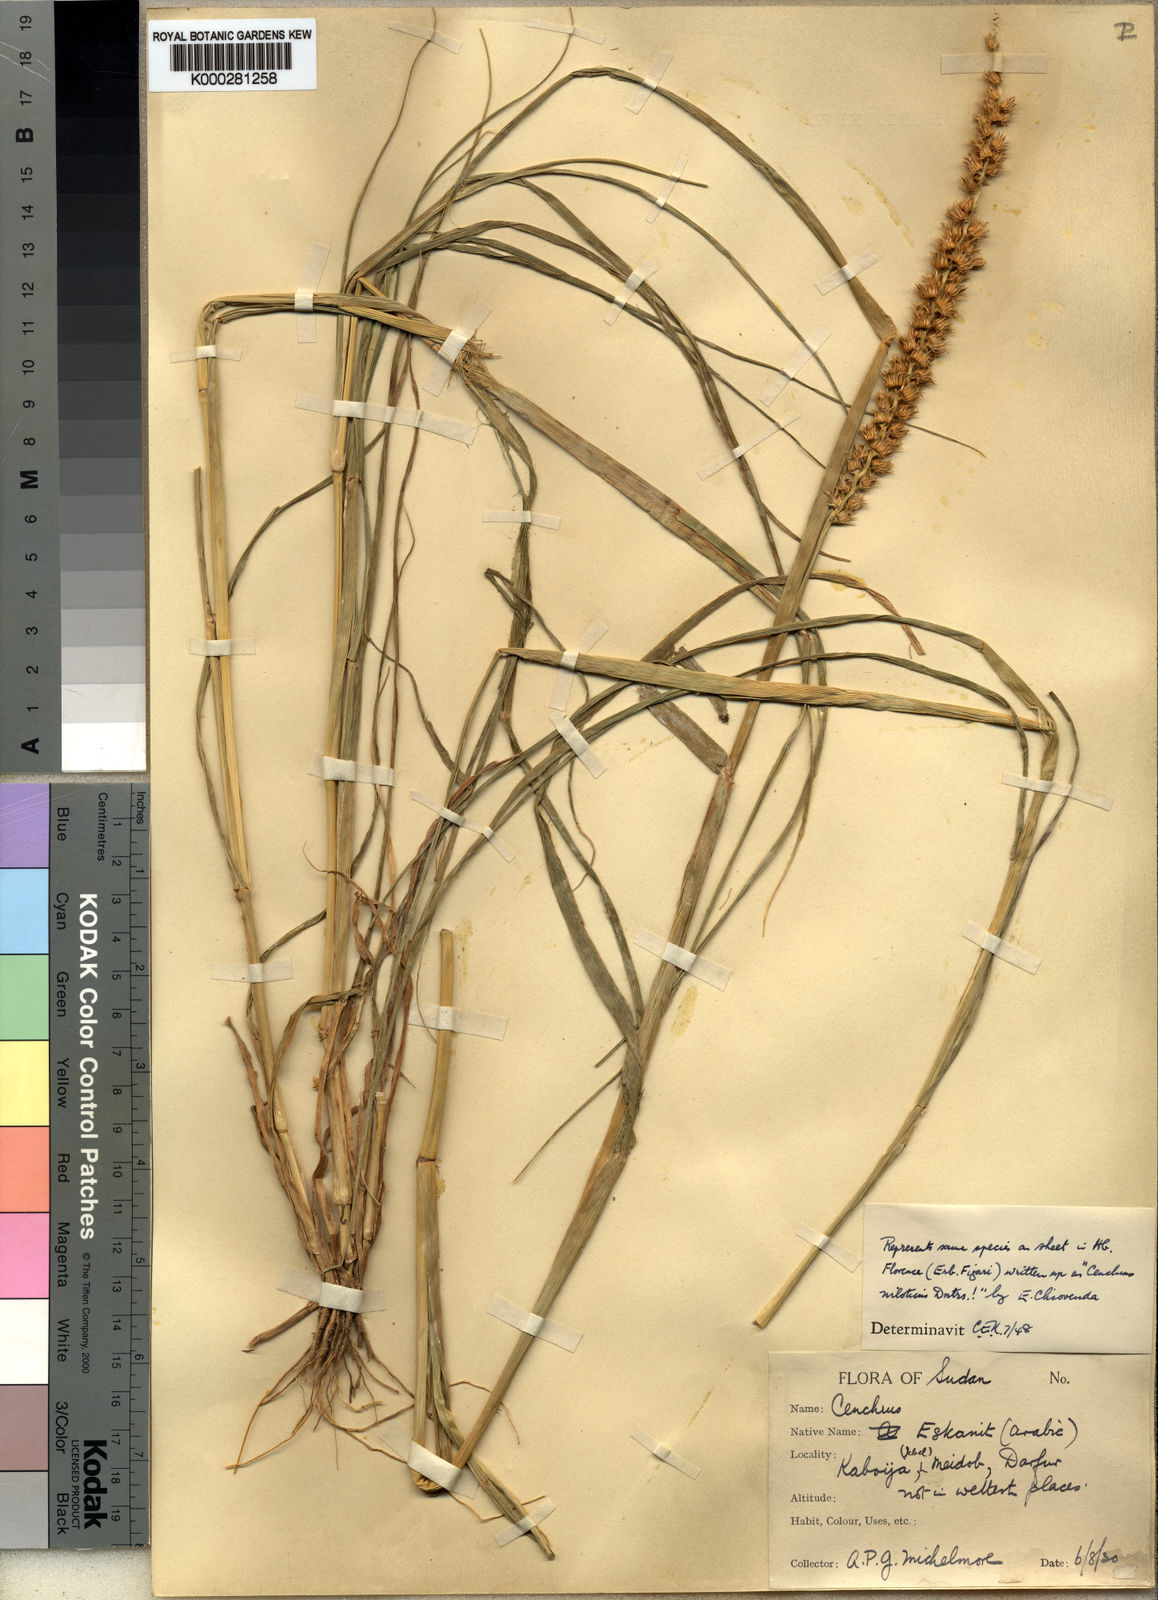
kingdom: Plantae
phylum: Tracheophyta
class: Liliopsida
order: Poales
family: Poaceae
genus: Cenchrus
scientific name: Cenchrus biflorus
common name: Indian sandbur
